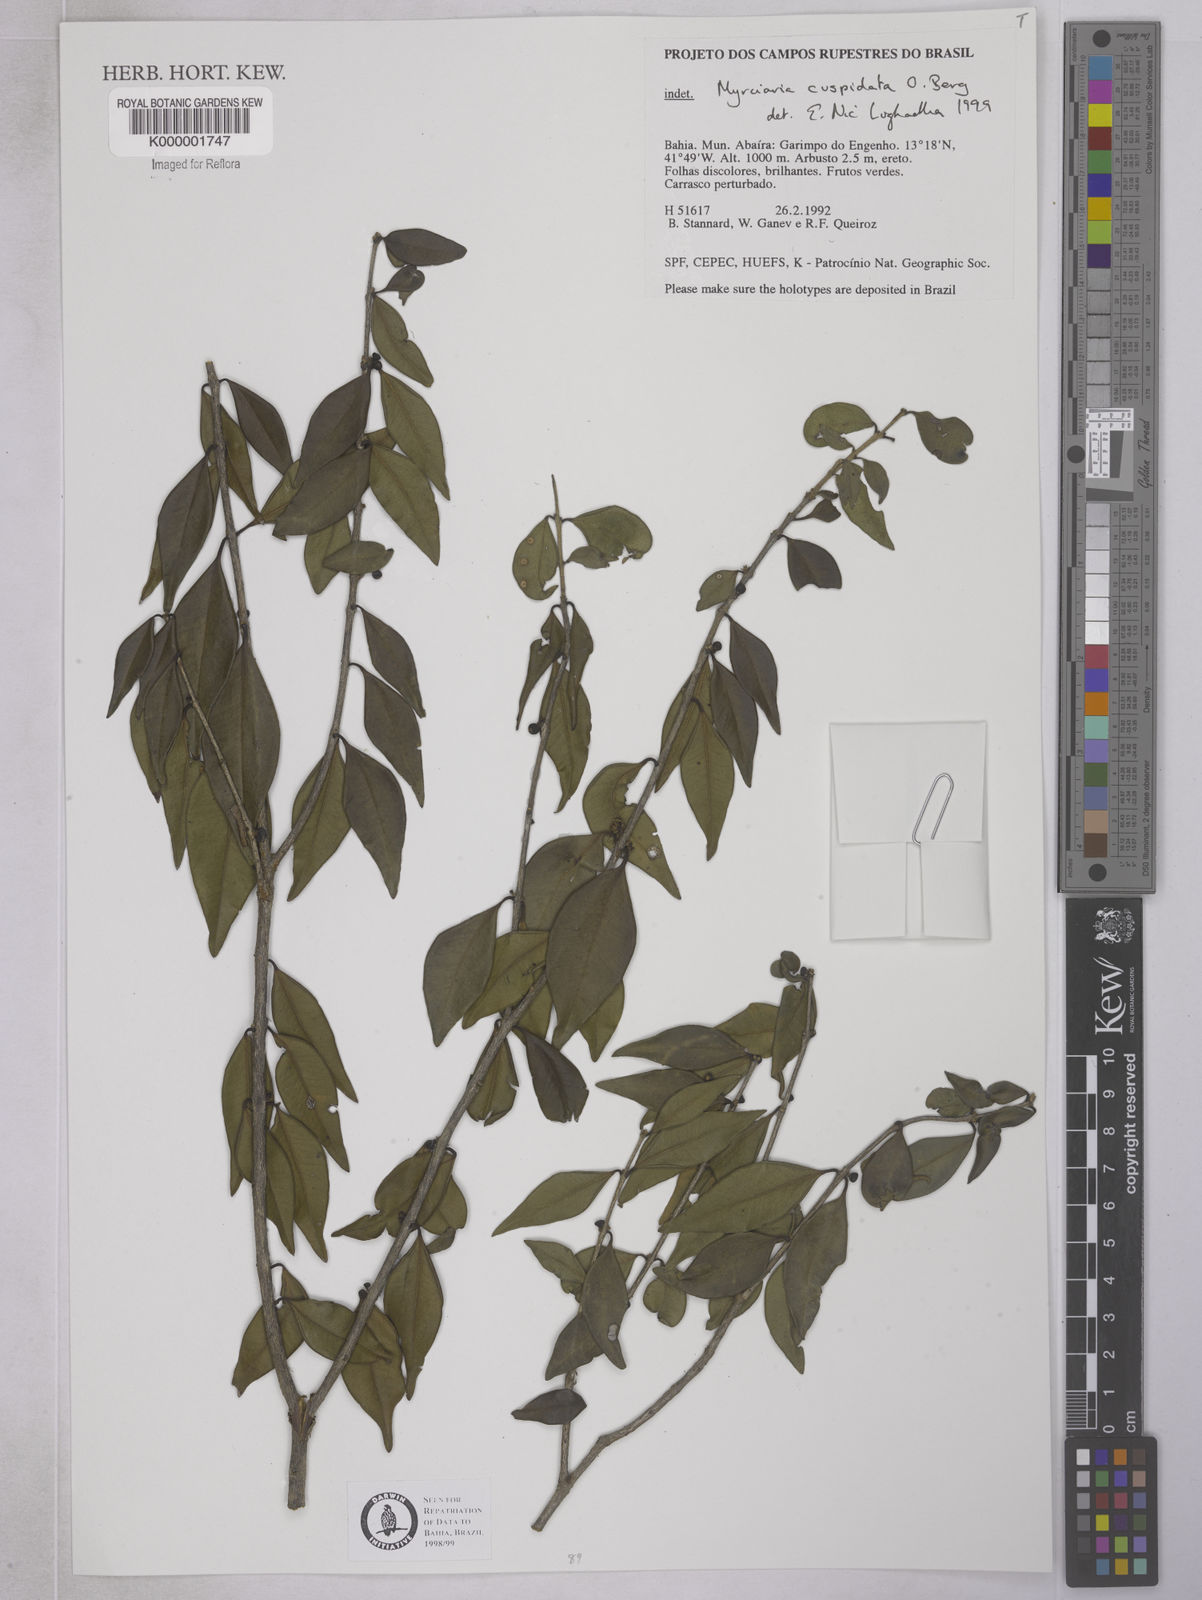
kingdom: Plantae
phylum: Tracheophyta
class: Magnoliopsida
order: Myrtales
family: Myrtaceae
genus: Myrciaria
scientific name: Myrciaria cuspidata
